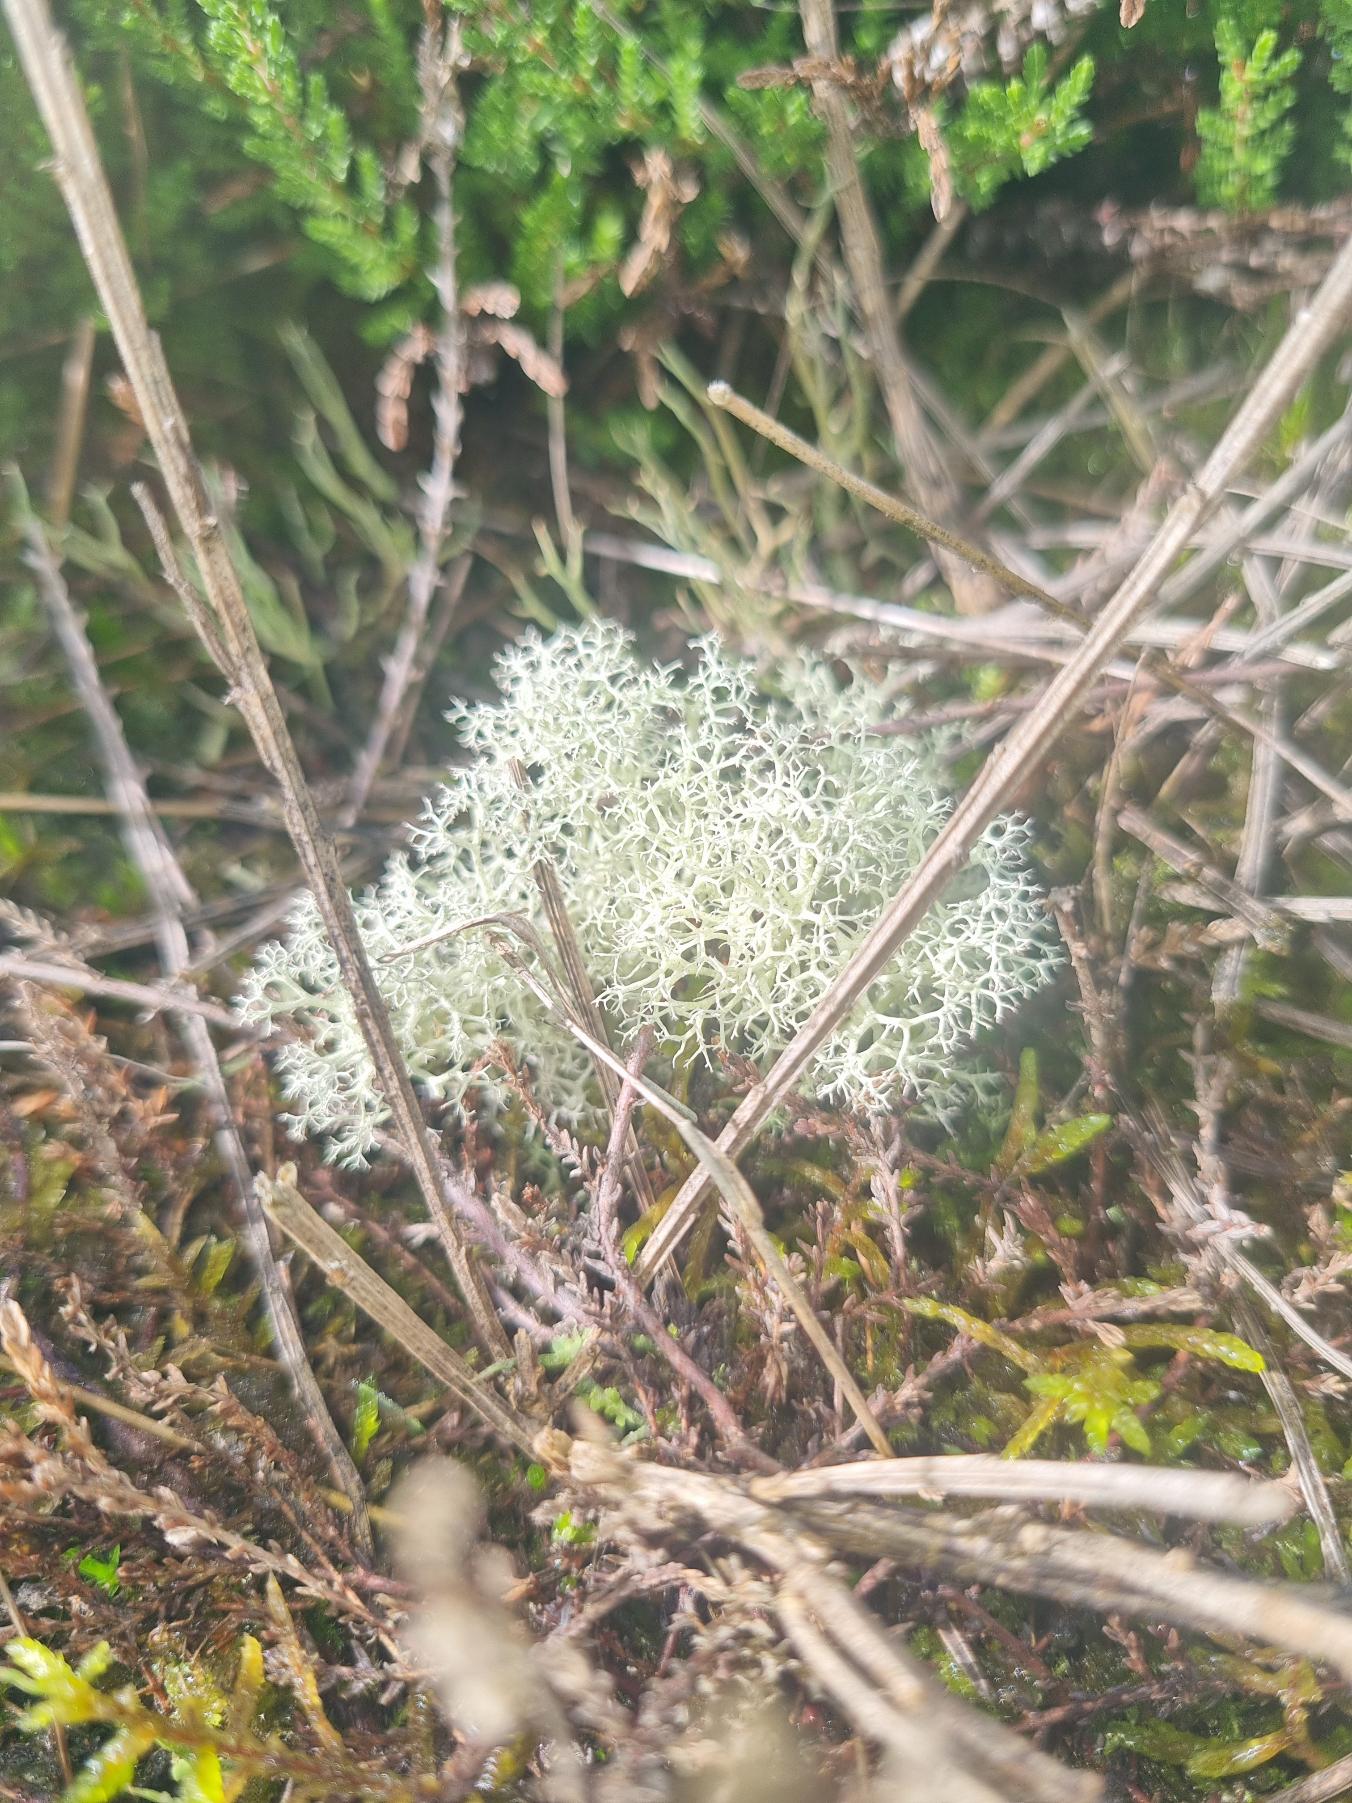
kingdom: Fungi
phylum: Ascomycota
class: Lecanoromycetes
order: Lecanorales
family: Cladoniaceae
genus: Cladonia
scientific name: Cladonia portentosa
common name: Hede-rensdyrlav
